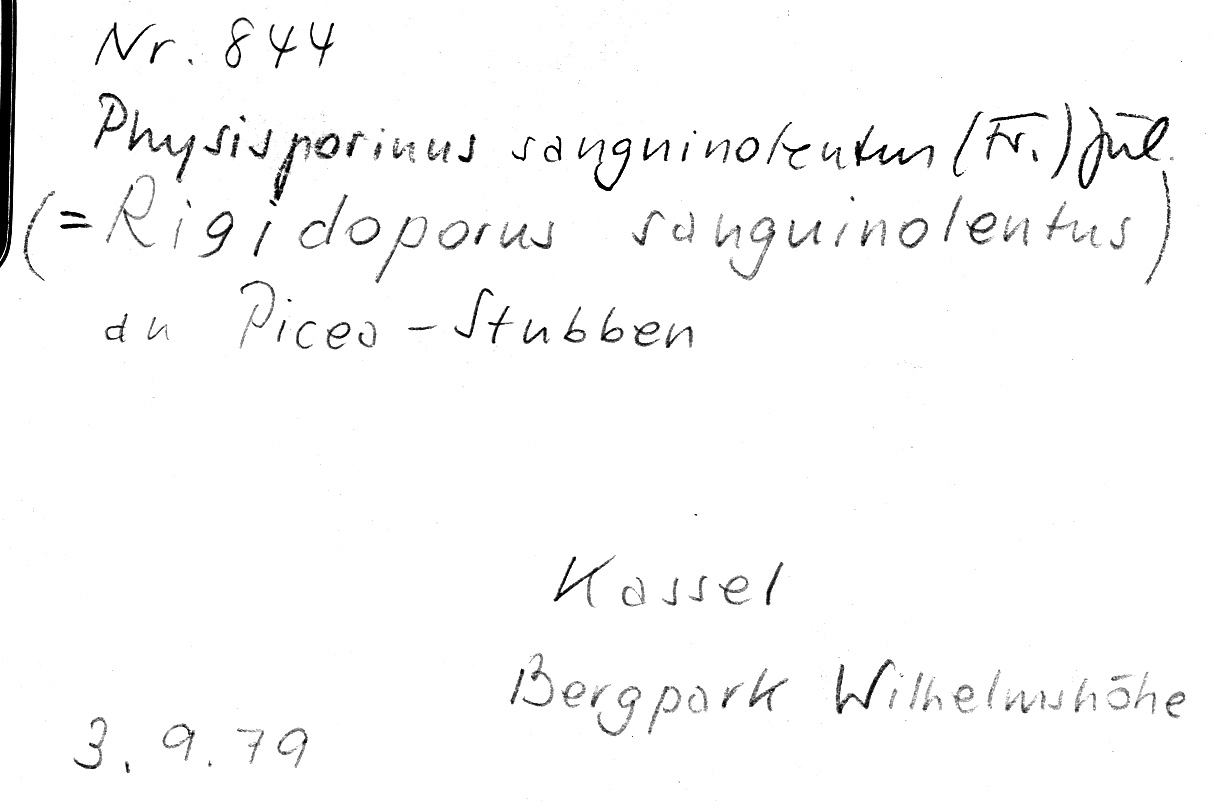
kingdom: Plantae
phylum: Tracheophyta
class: Pinopsida
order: Pinales
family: Pinaceae
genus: Picea
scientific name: Picea
